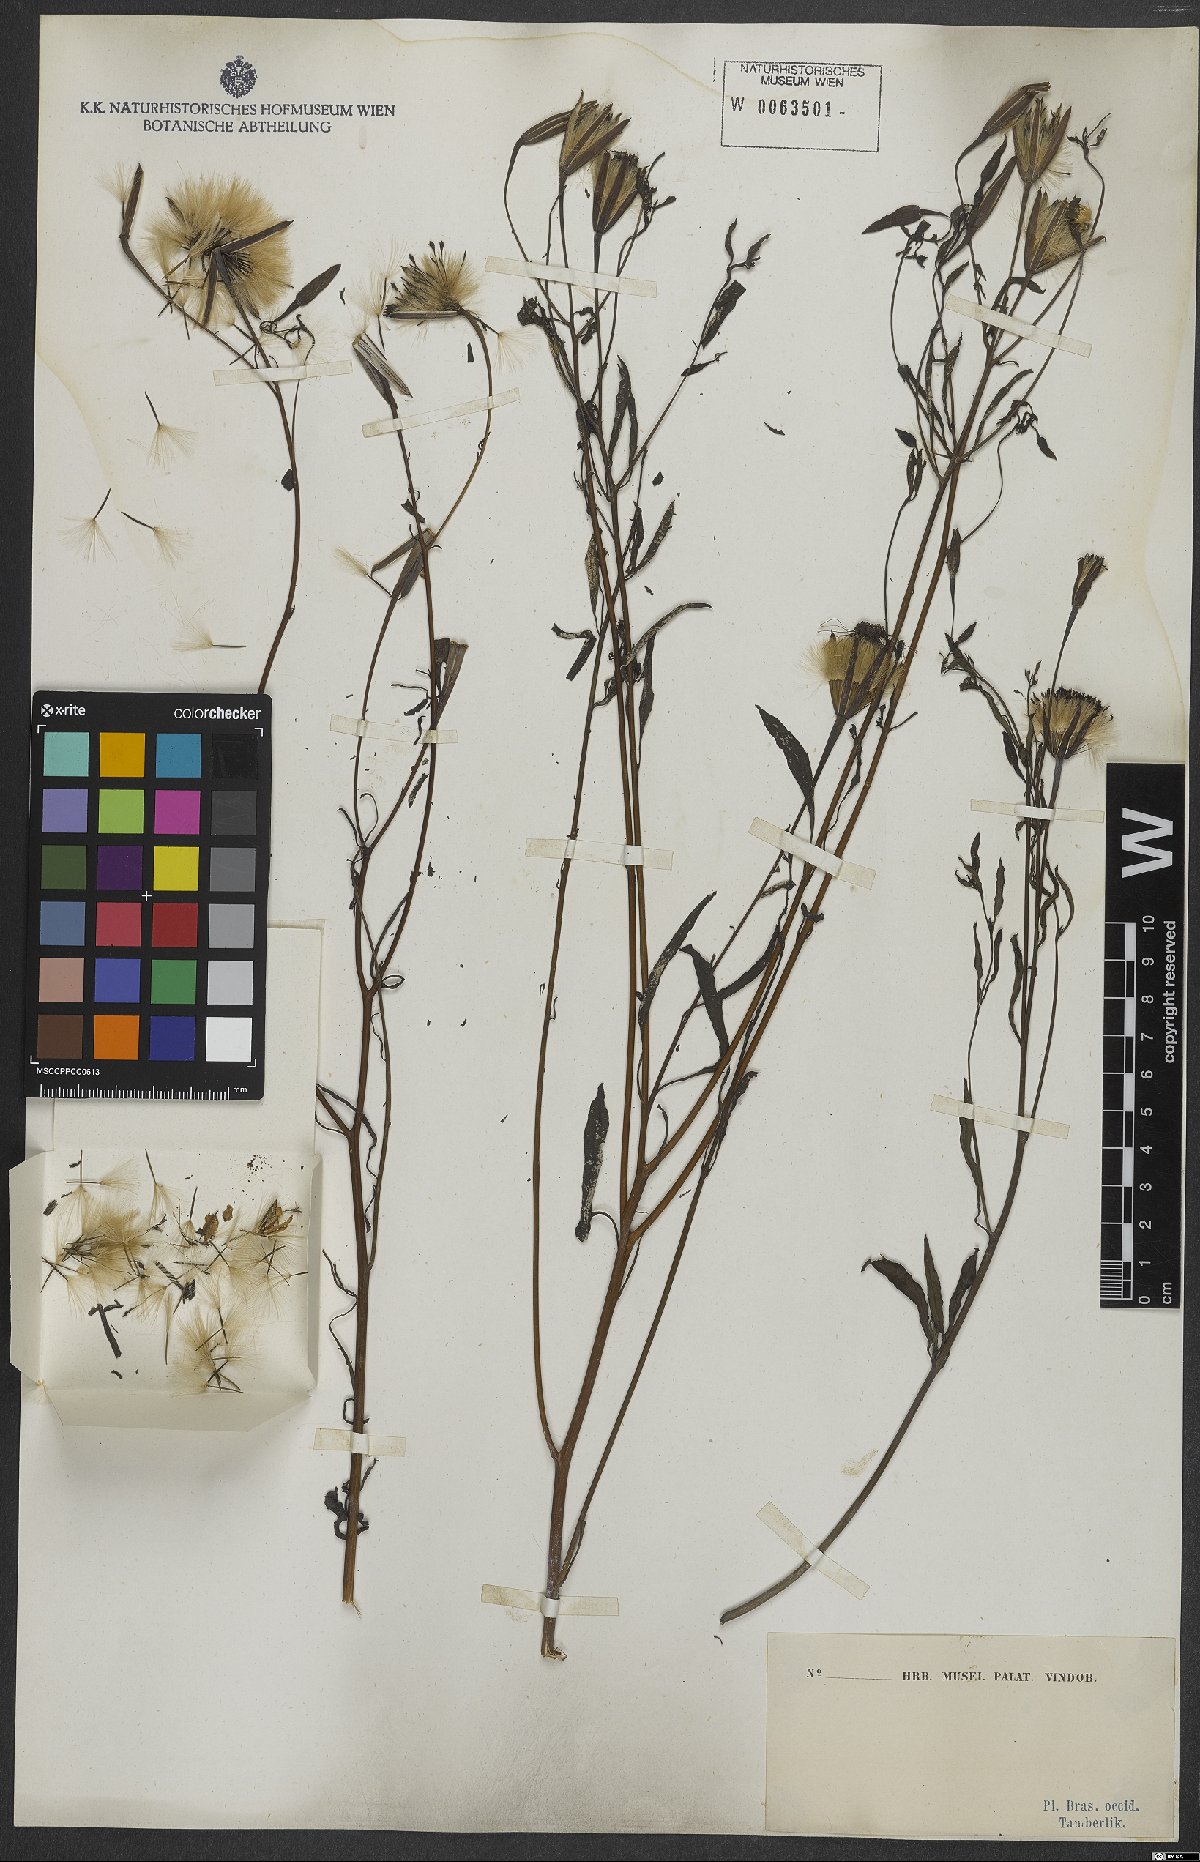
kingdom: Plantae
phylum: Tracheophyta
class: Magnoliopsida
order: Asterales
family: Asteraceae
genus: Porophyllum
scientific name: Porophyllum lanceolatum
